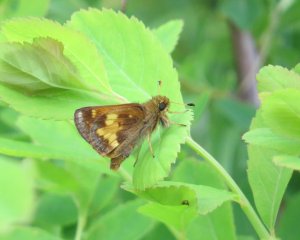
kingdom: Animalia
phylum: Arthropoda
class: Insecta
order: Lepidoptera
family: Hesperiidae
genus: Lon
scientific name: Lon hobomok
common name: Hobomok Skipper
